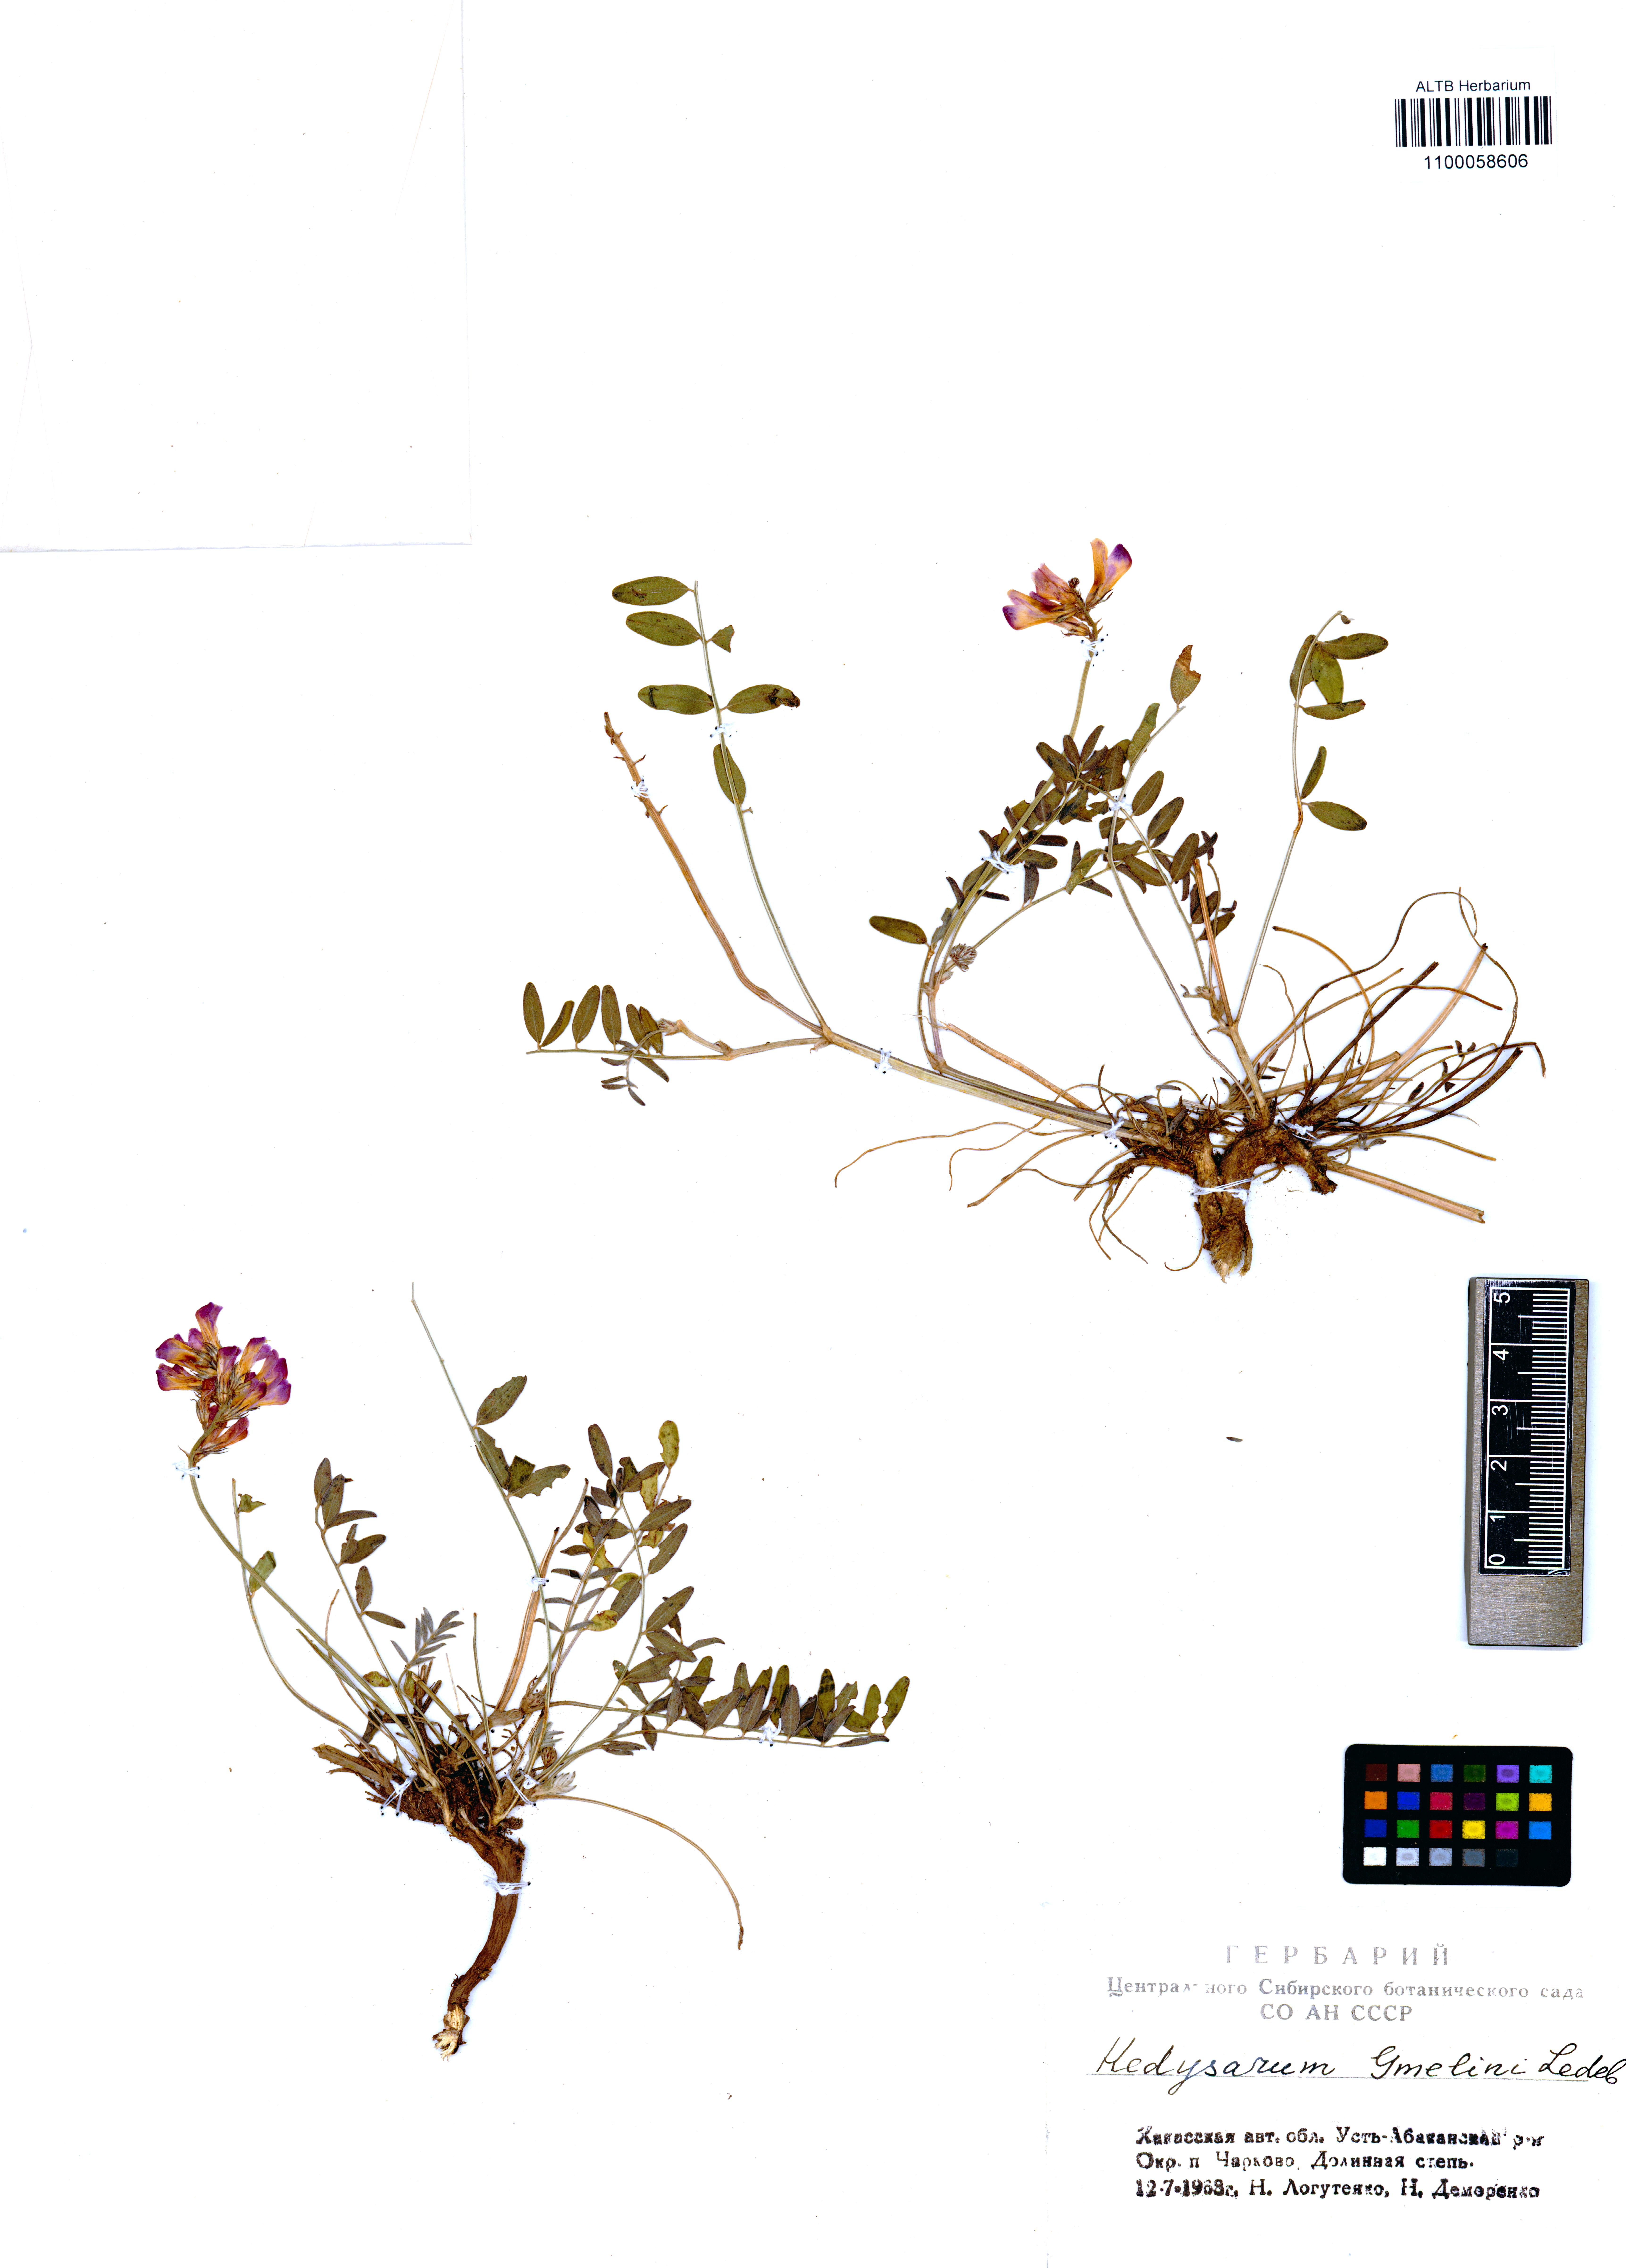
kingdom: Plantae
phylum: Tracheophyta
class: Magnoliopsida
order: Fabales
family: Fabaceae
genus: Hedysarum
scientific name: Hedysarum gmelinii
